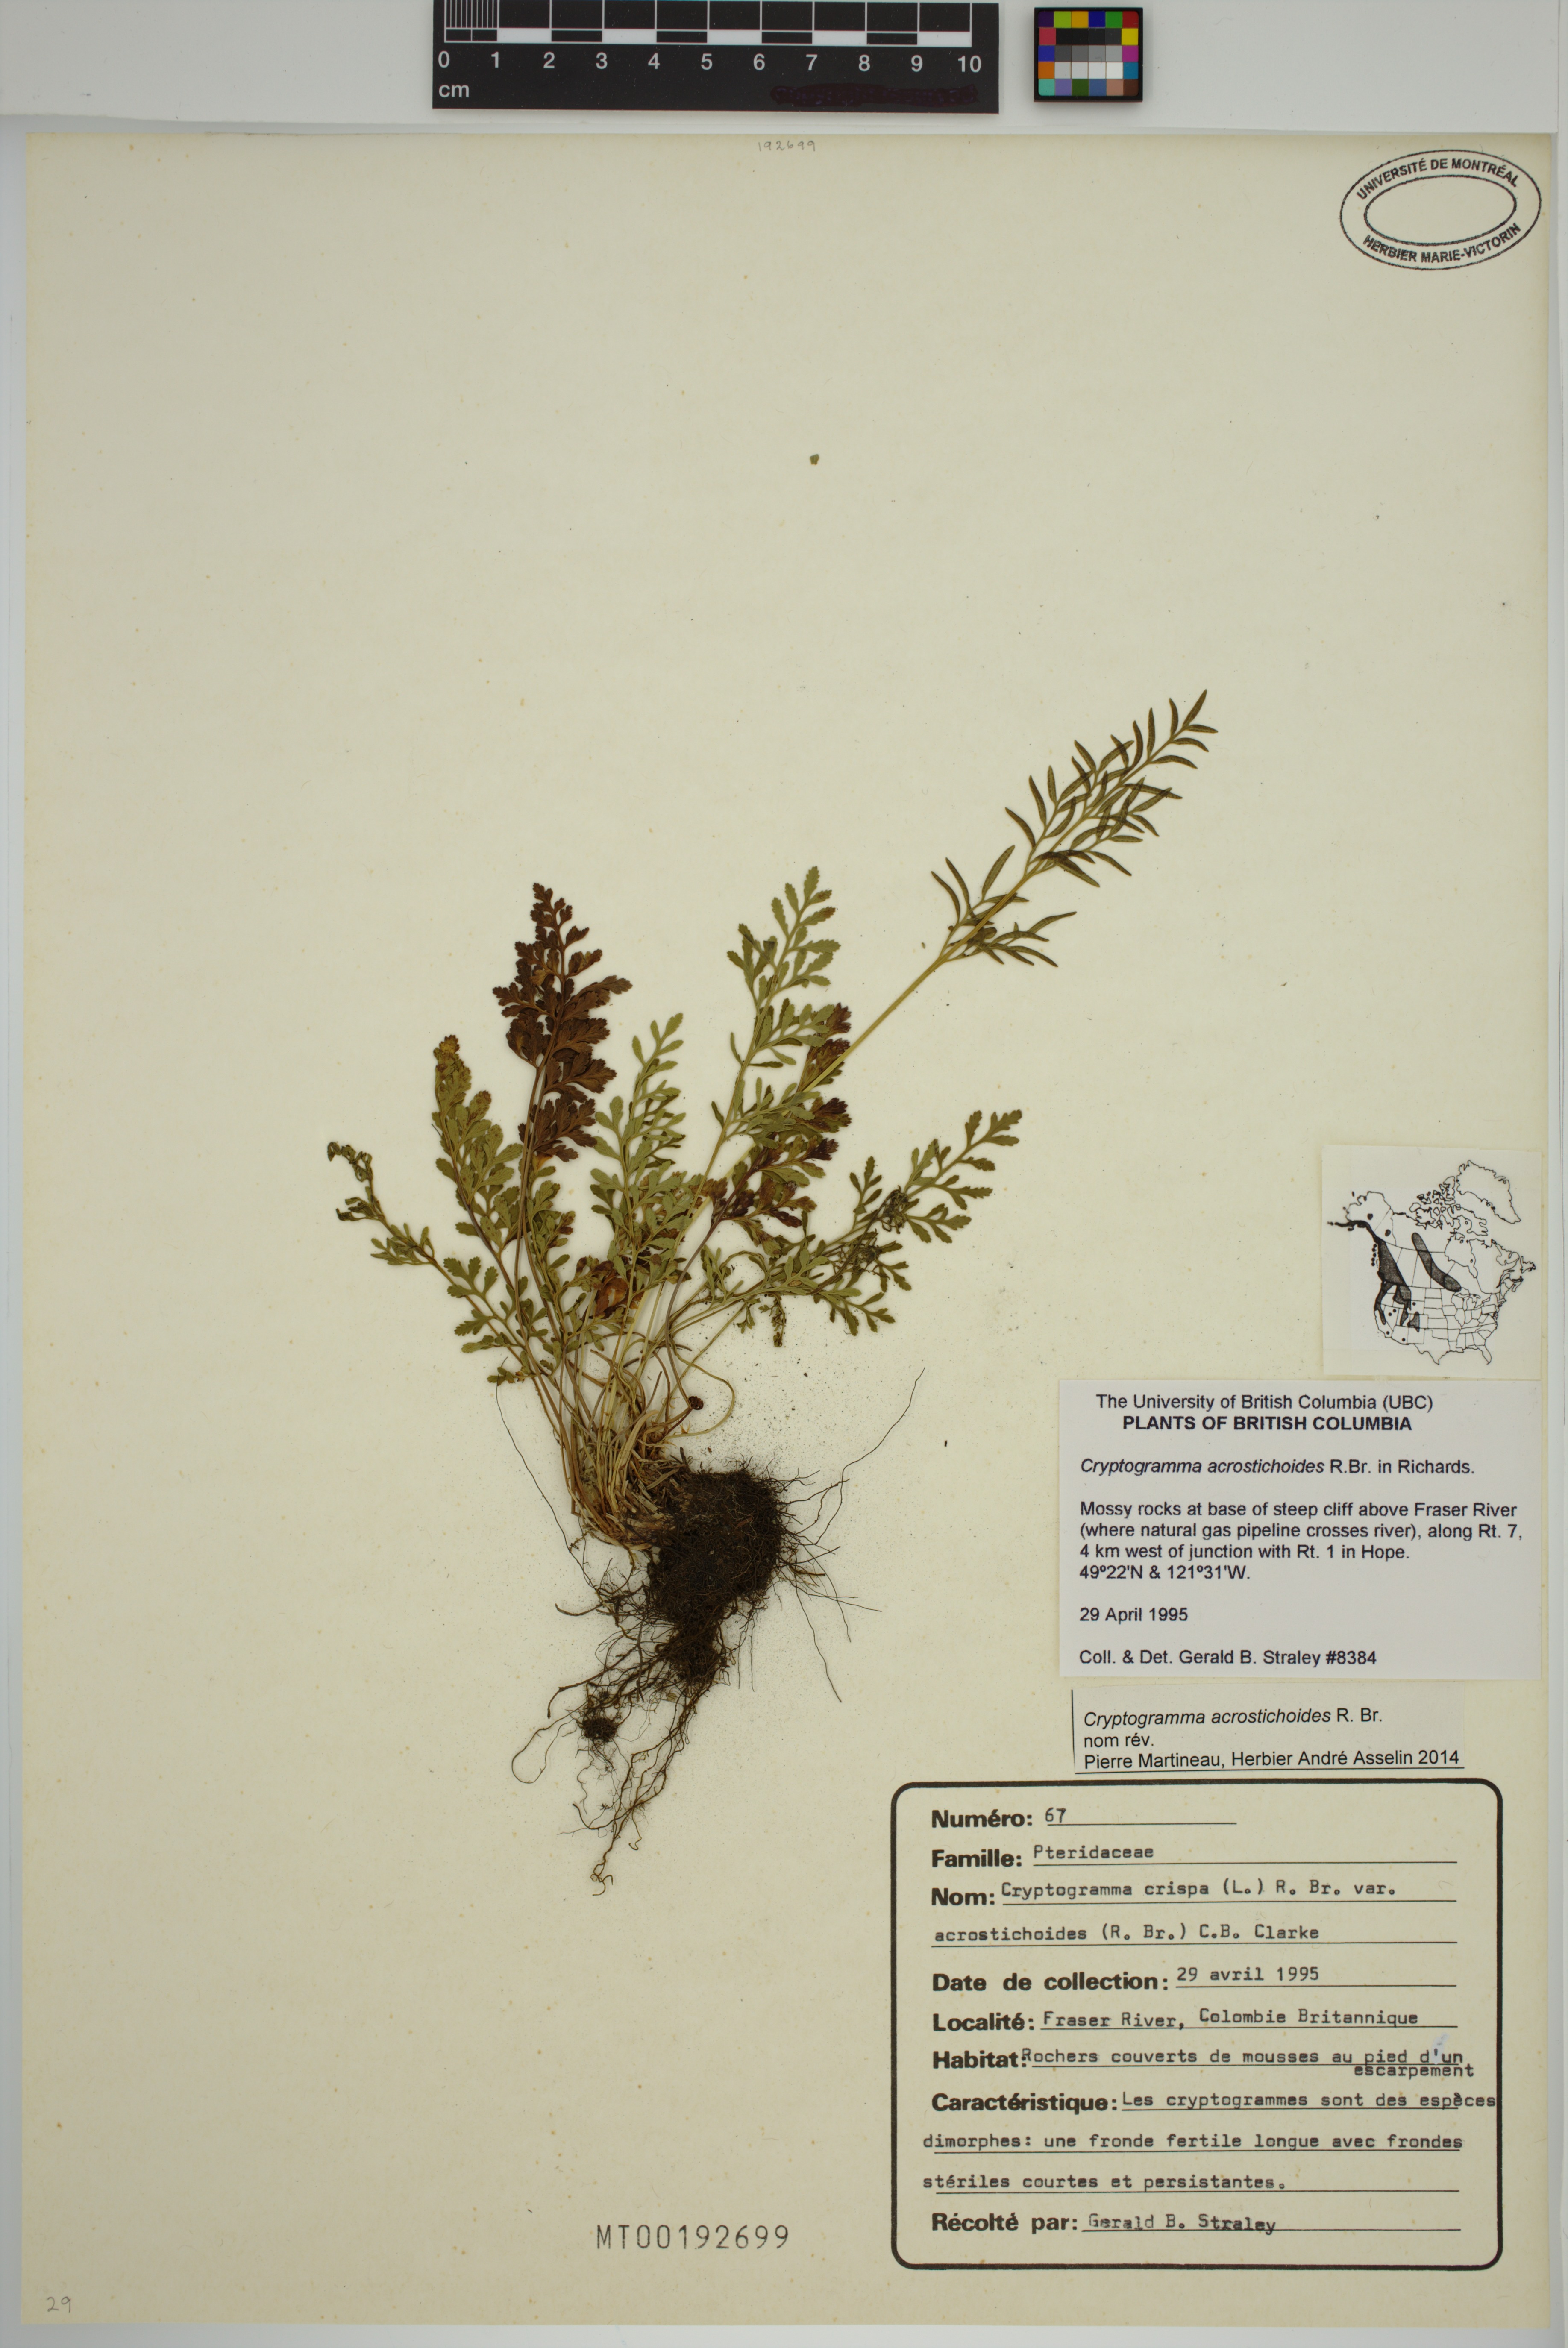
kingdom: Plantae
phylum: Tracheophyta
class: Polypodiopsida
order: Polypodiales
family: Pteridaceae
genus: Cryptogramma
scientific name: Cryptogramma acrostichoides
